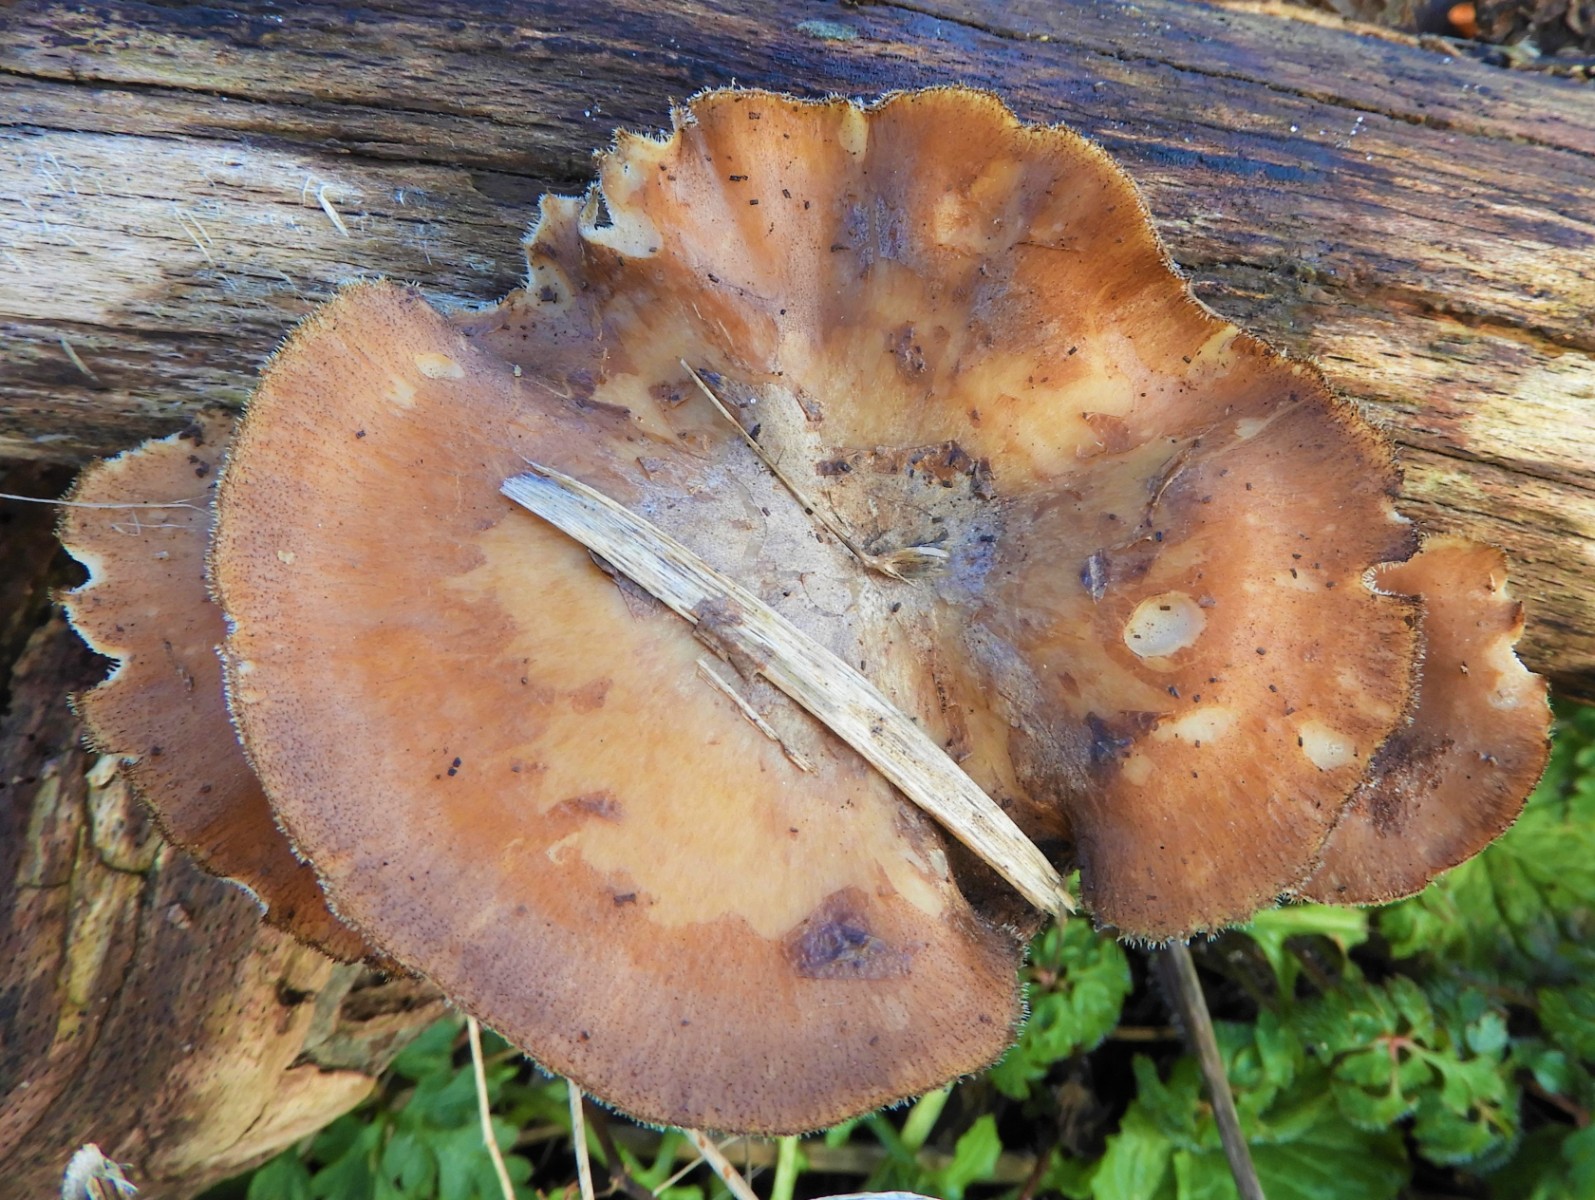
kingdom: Fungi
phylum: Basidiomycota
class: Agaricomycetes
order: Polyporales
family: Polyporaceae
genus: Lentinus
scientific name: Lentinus brumalis
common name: vinter-stilkporesvamp
